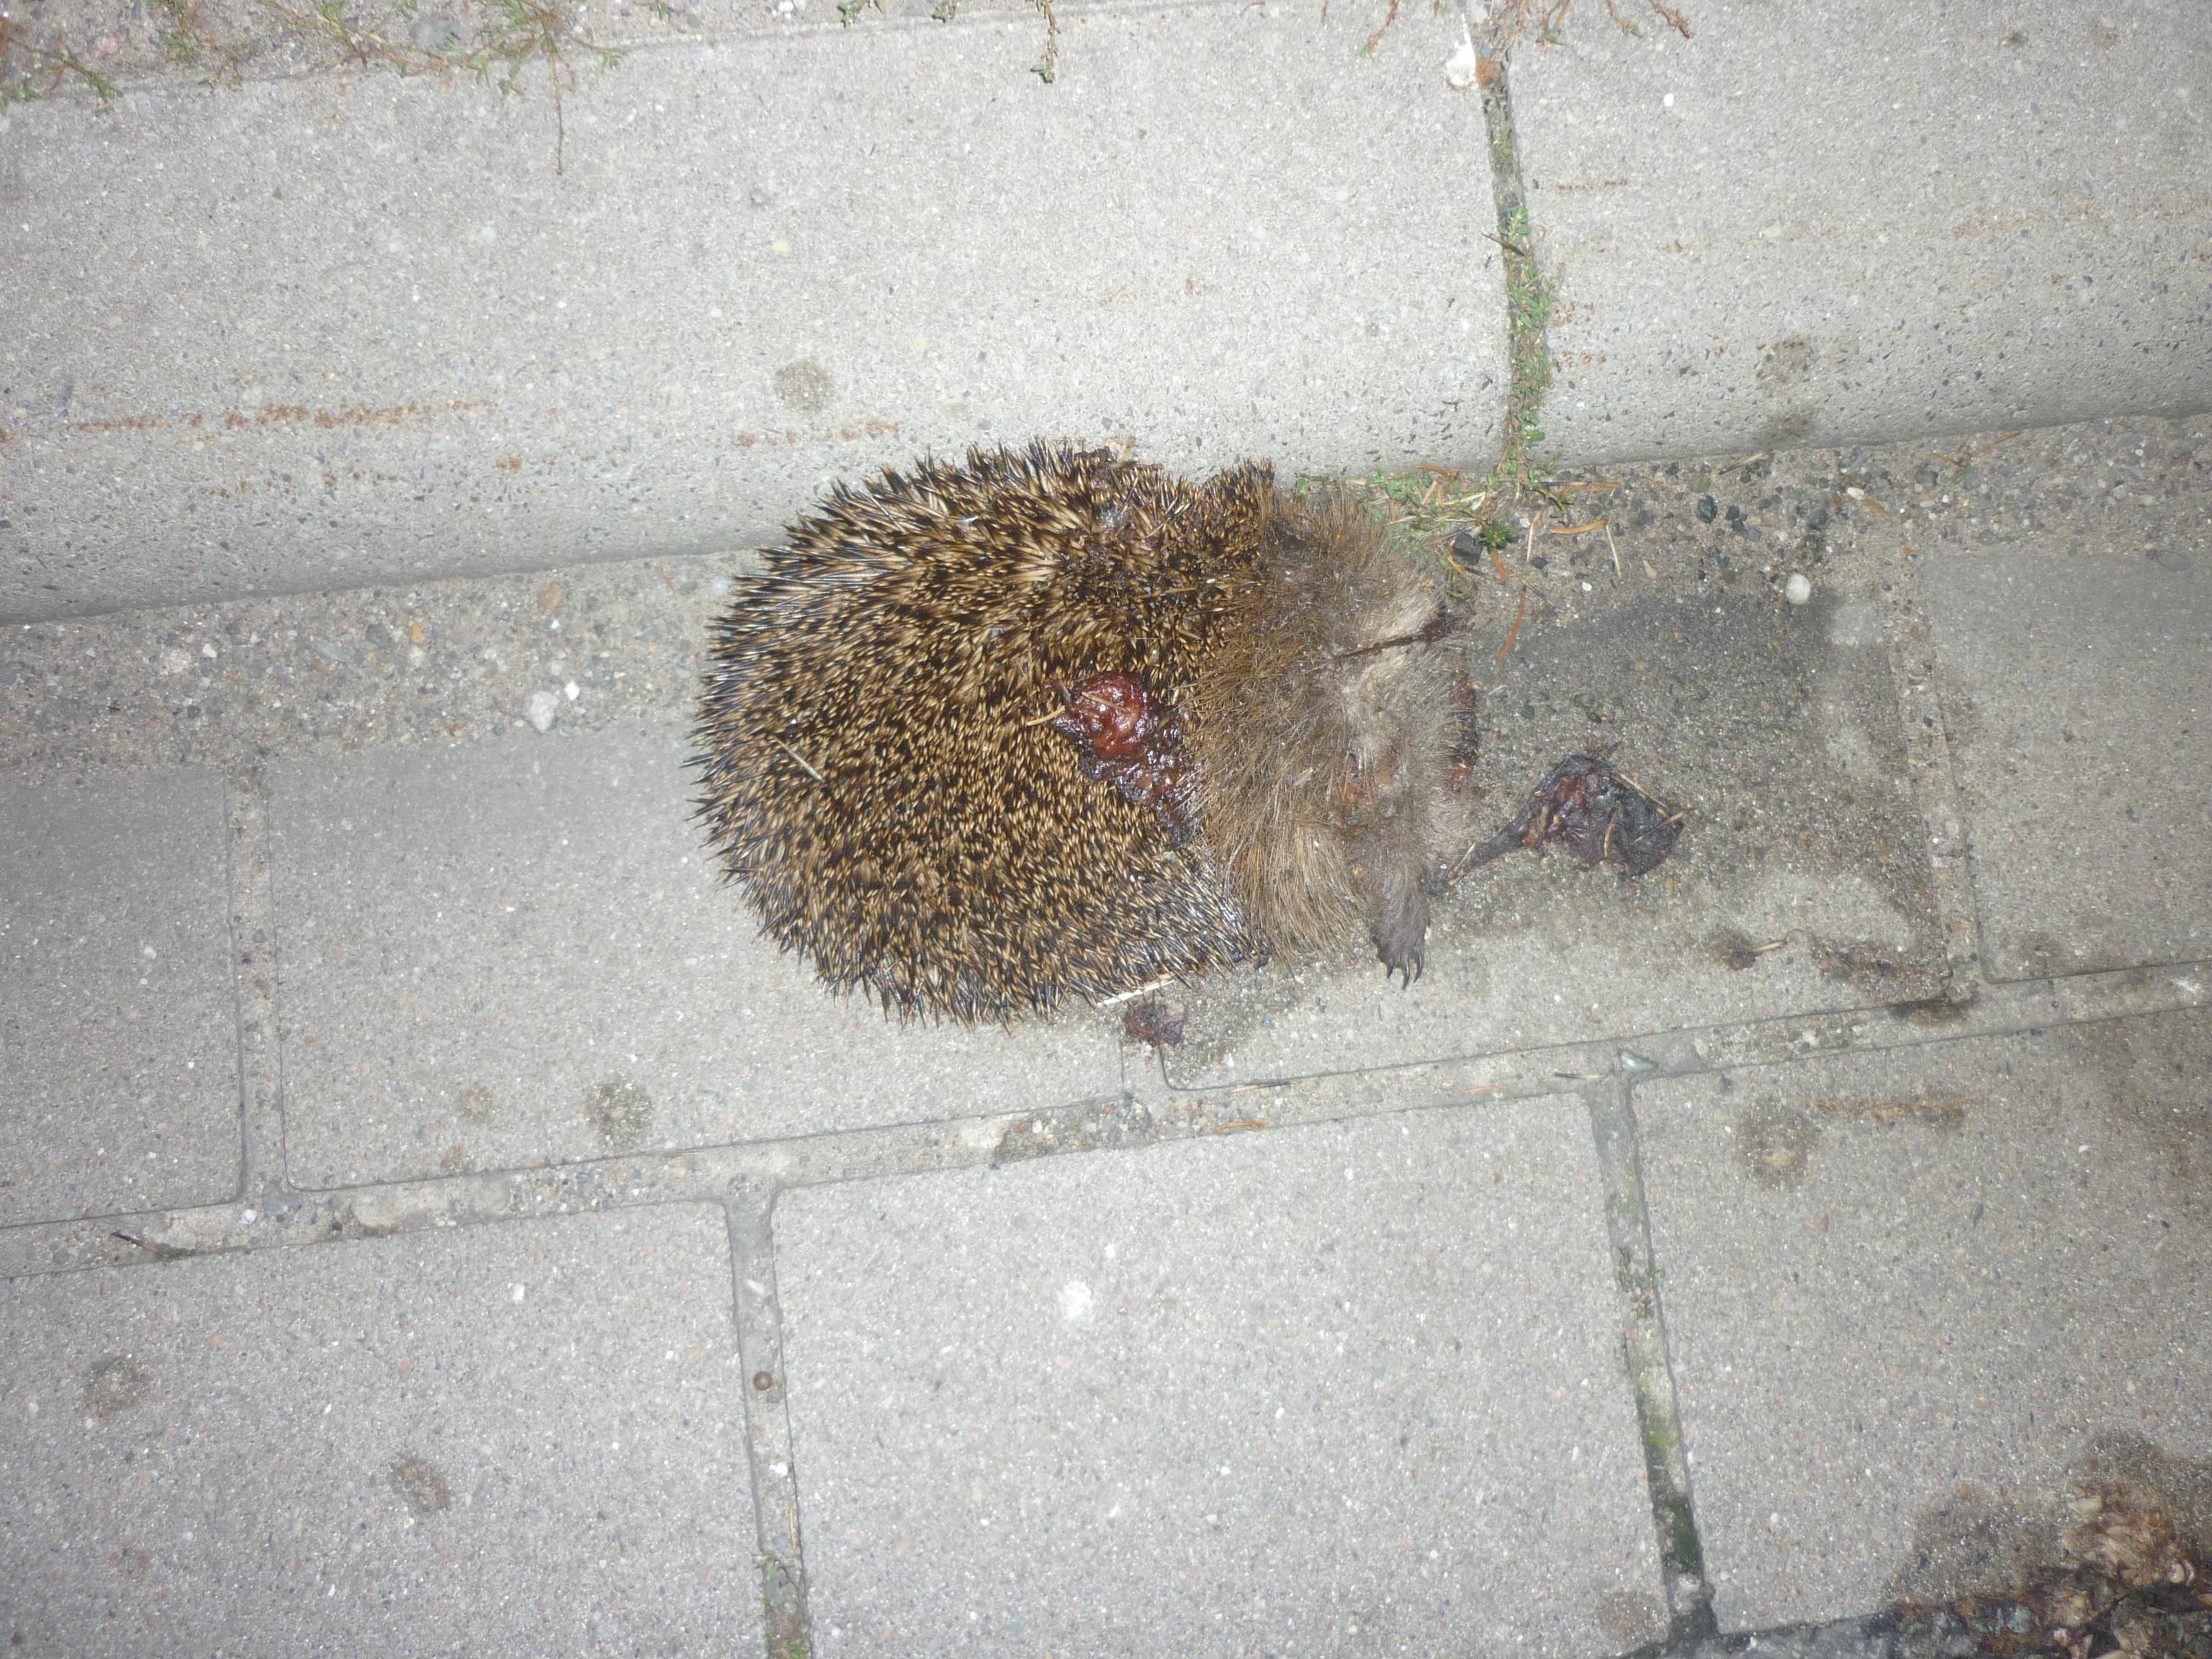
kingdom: Animalia
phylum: Chordata
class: Mammalia
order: Erinaceomorpha
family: Erinaceidae
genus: Erinaceus
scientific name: Erinaceus
